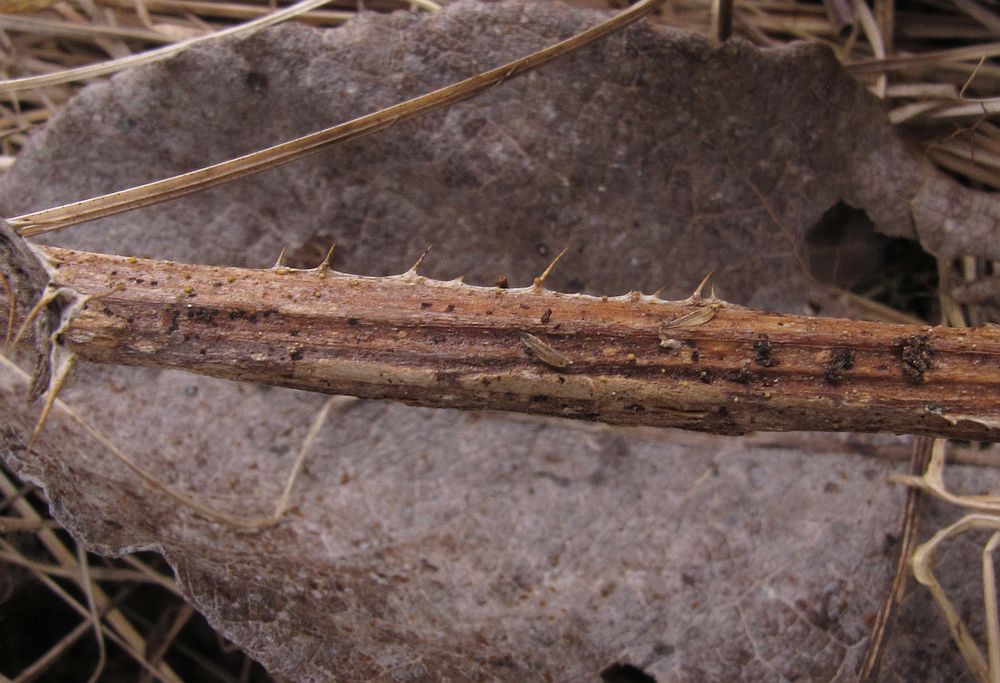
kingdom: Fungi
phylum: Ascomycota
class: Leotiomycetes
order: Helotiales
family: Lachnaceae
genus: Lachnum
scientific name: Lachnum sulphureum
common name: svovlhåret frynseskive
